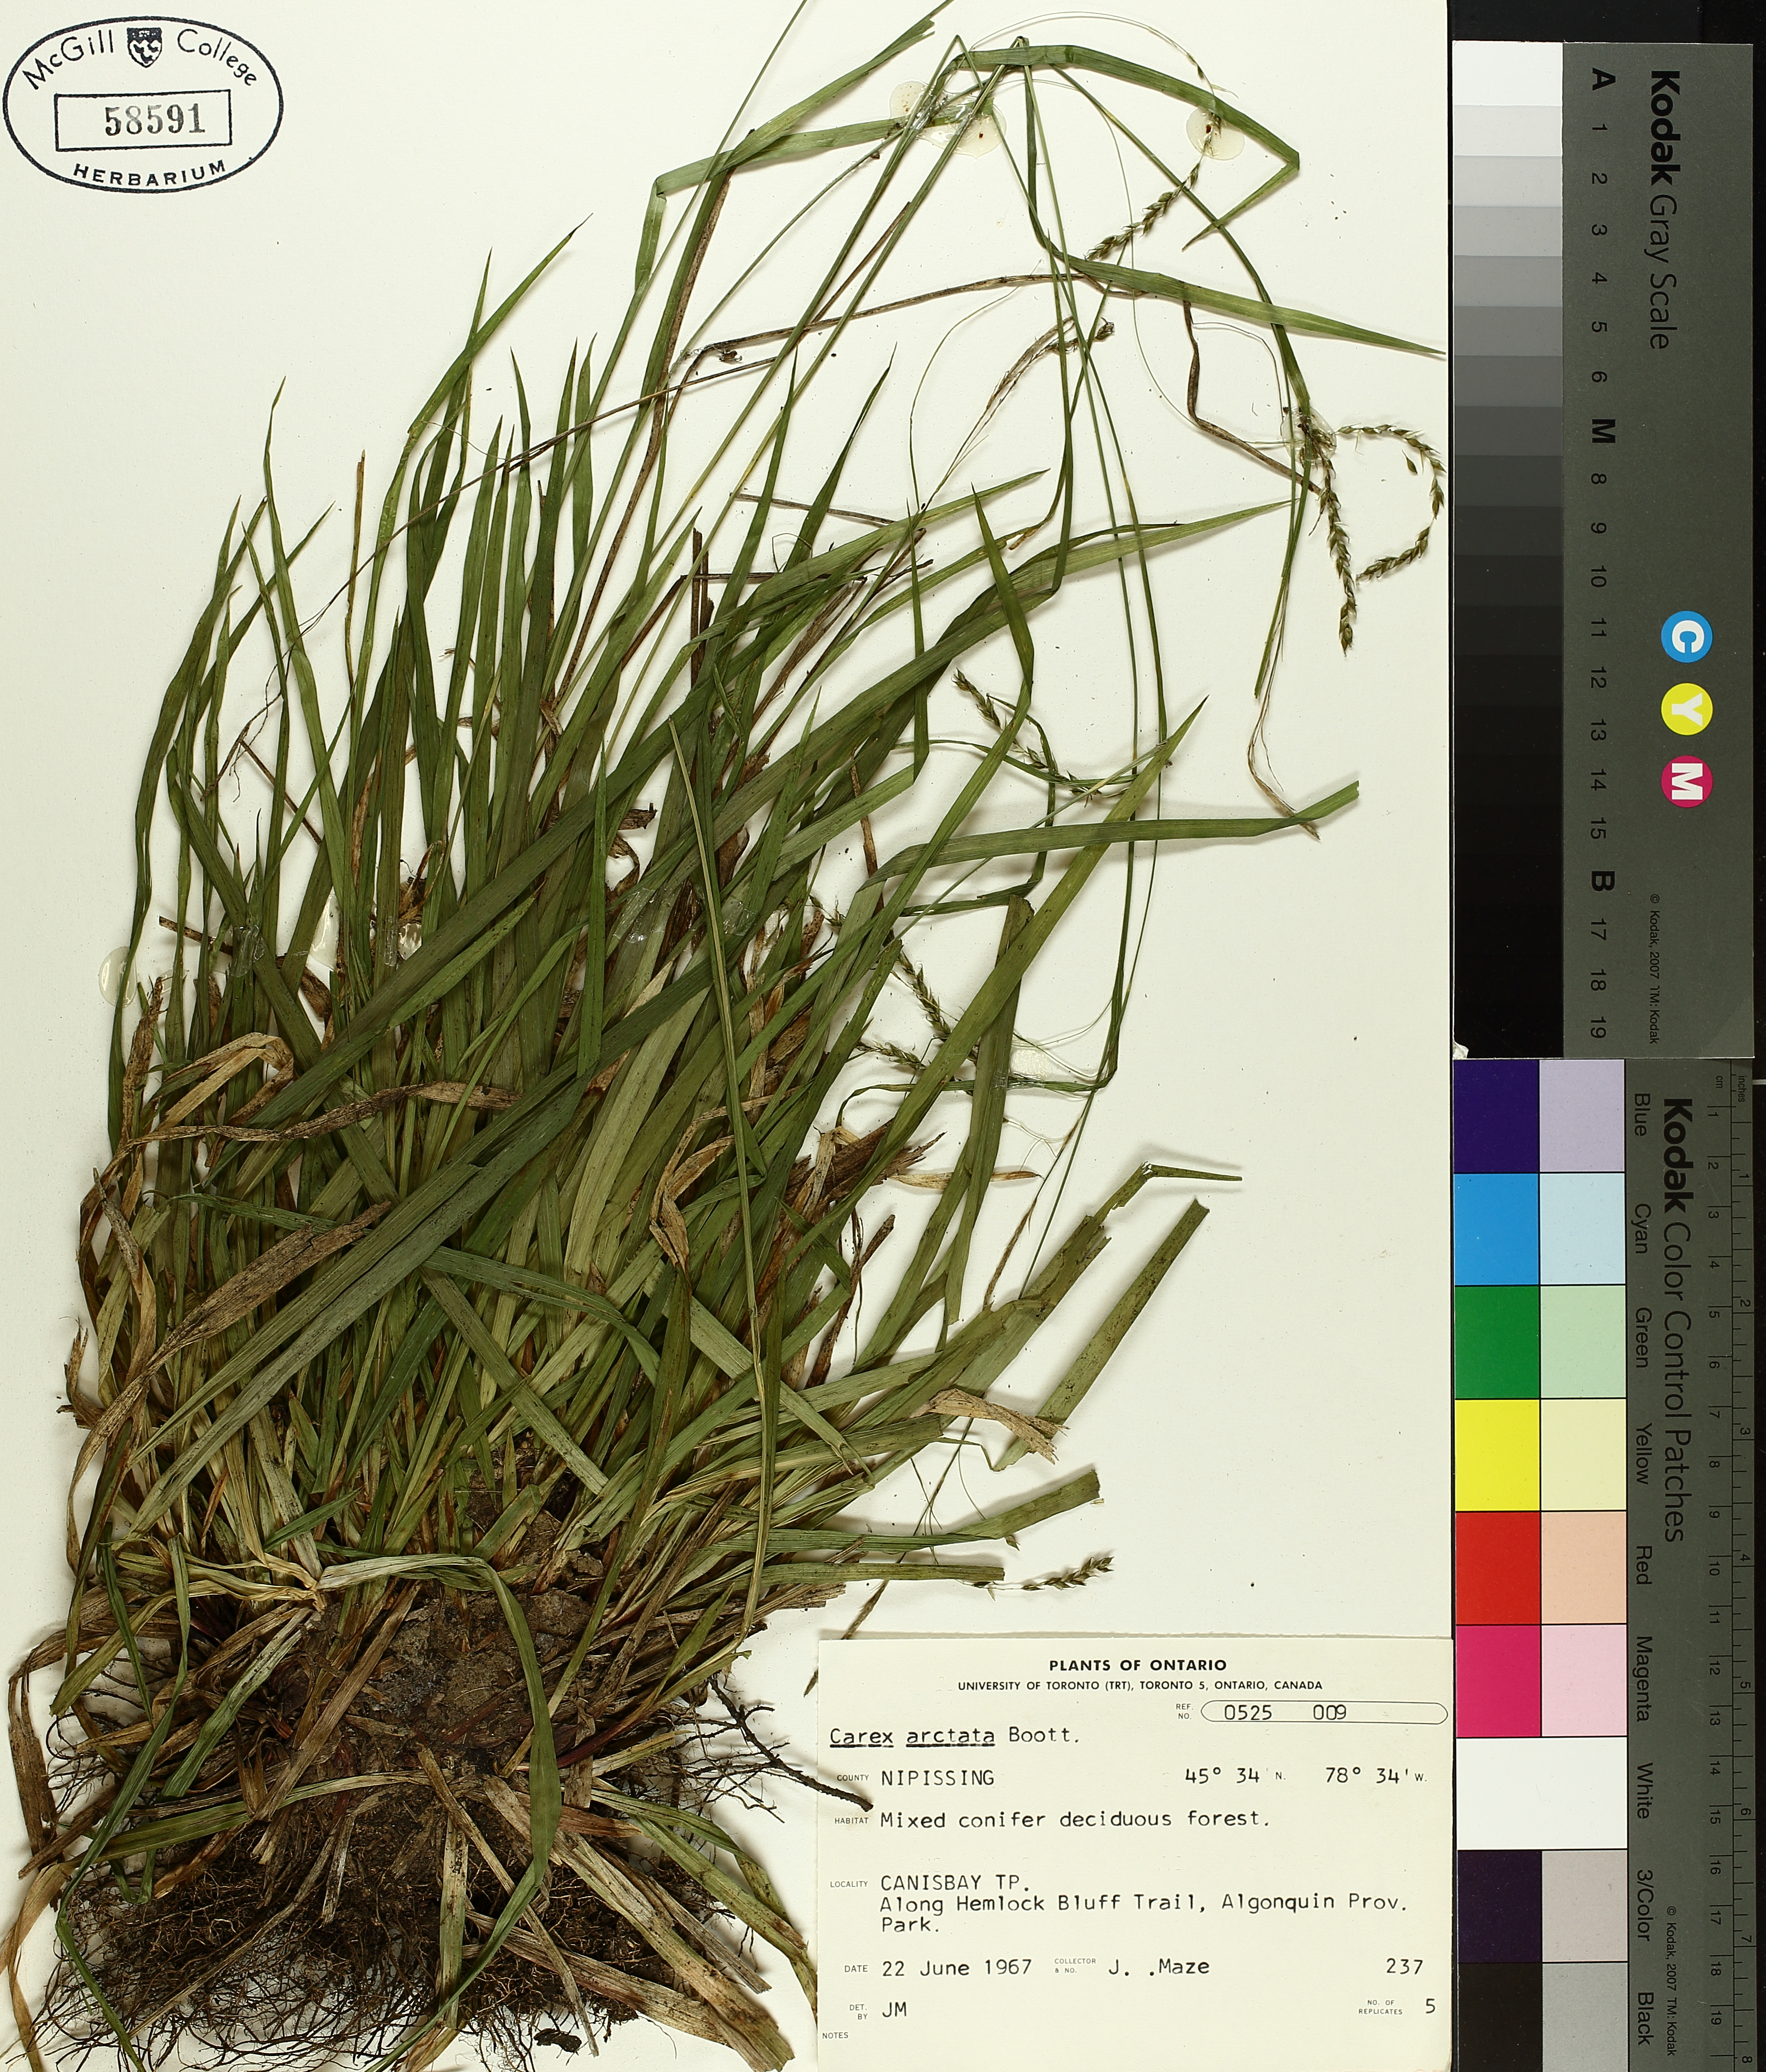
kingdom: Plantae
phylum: Tracheophyta
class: Liliopsida
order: Poales
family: Cyperaceae
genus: Carex
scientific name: Carex arctata
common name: Black sedge
